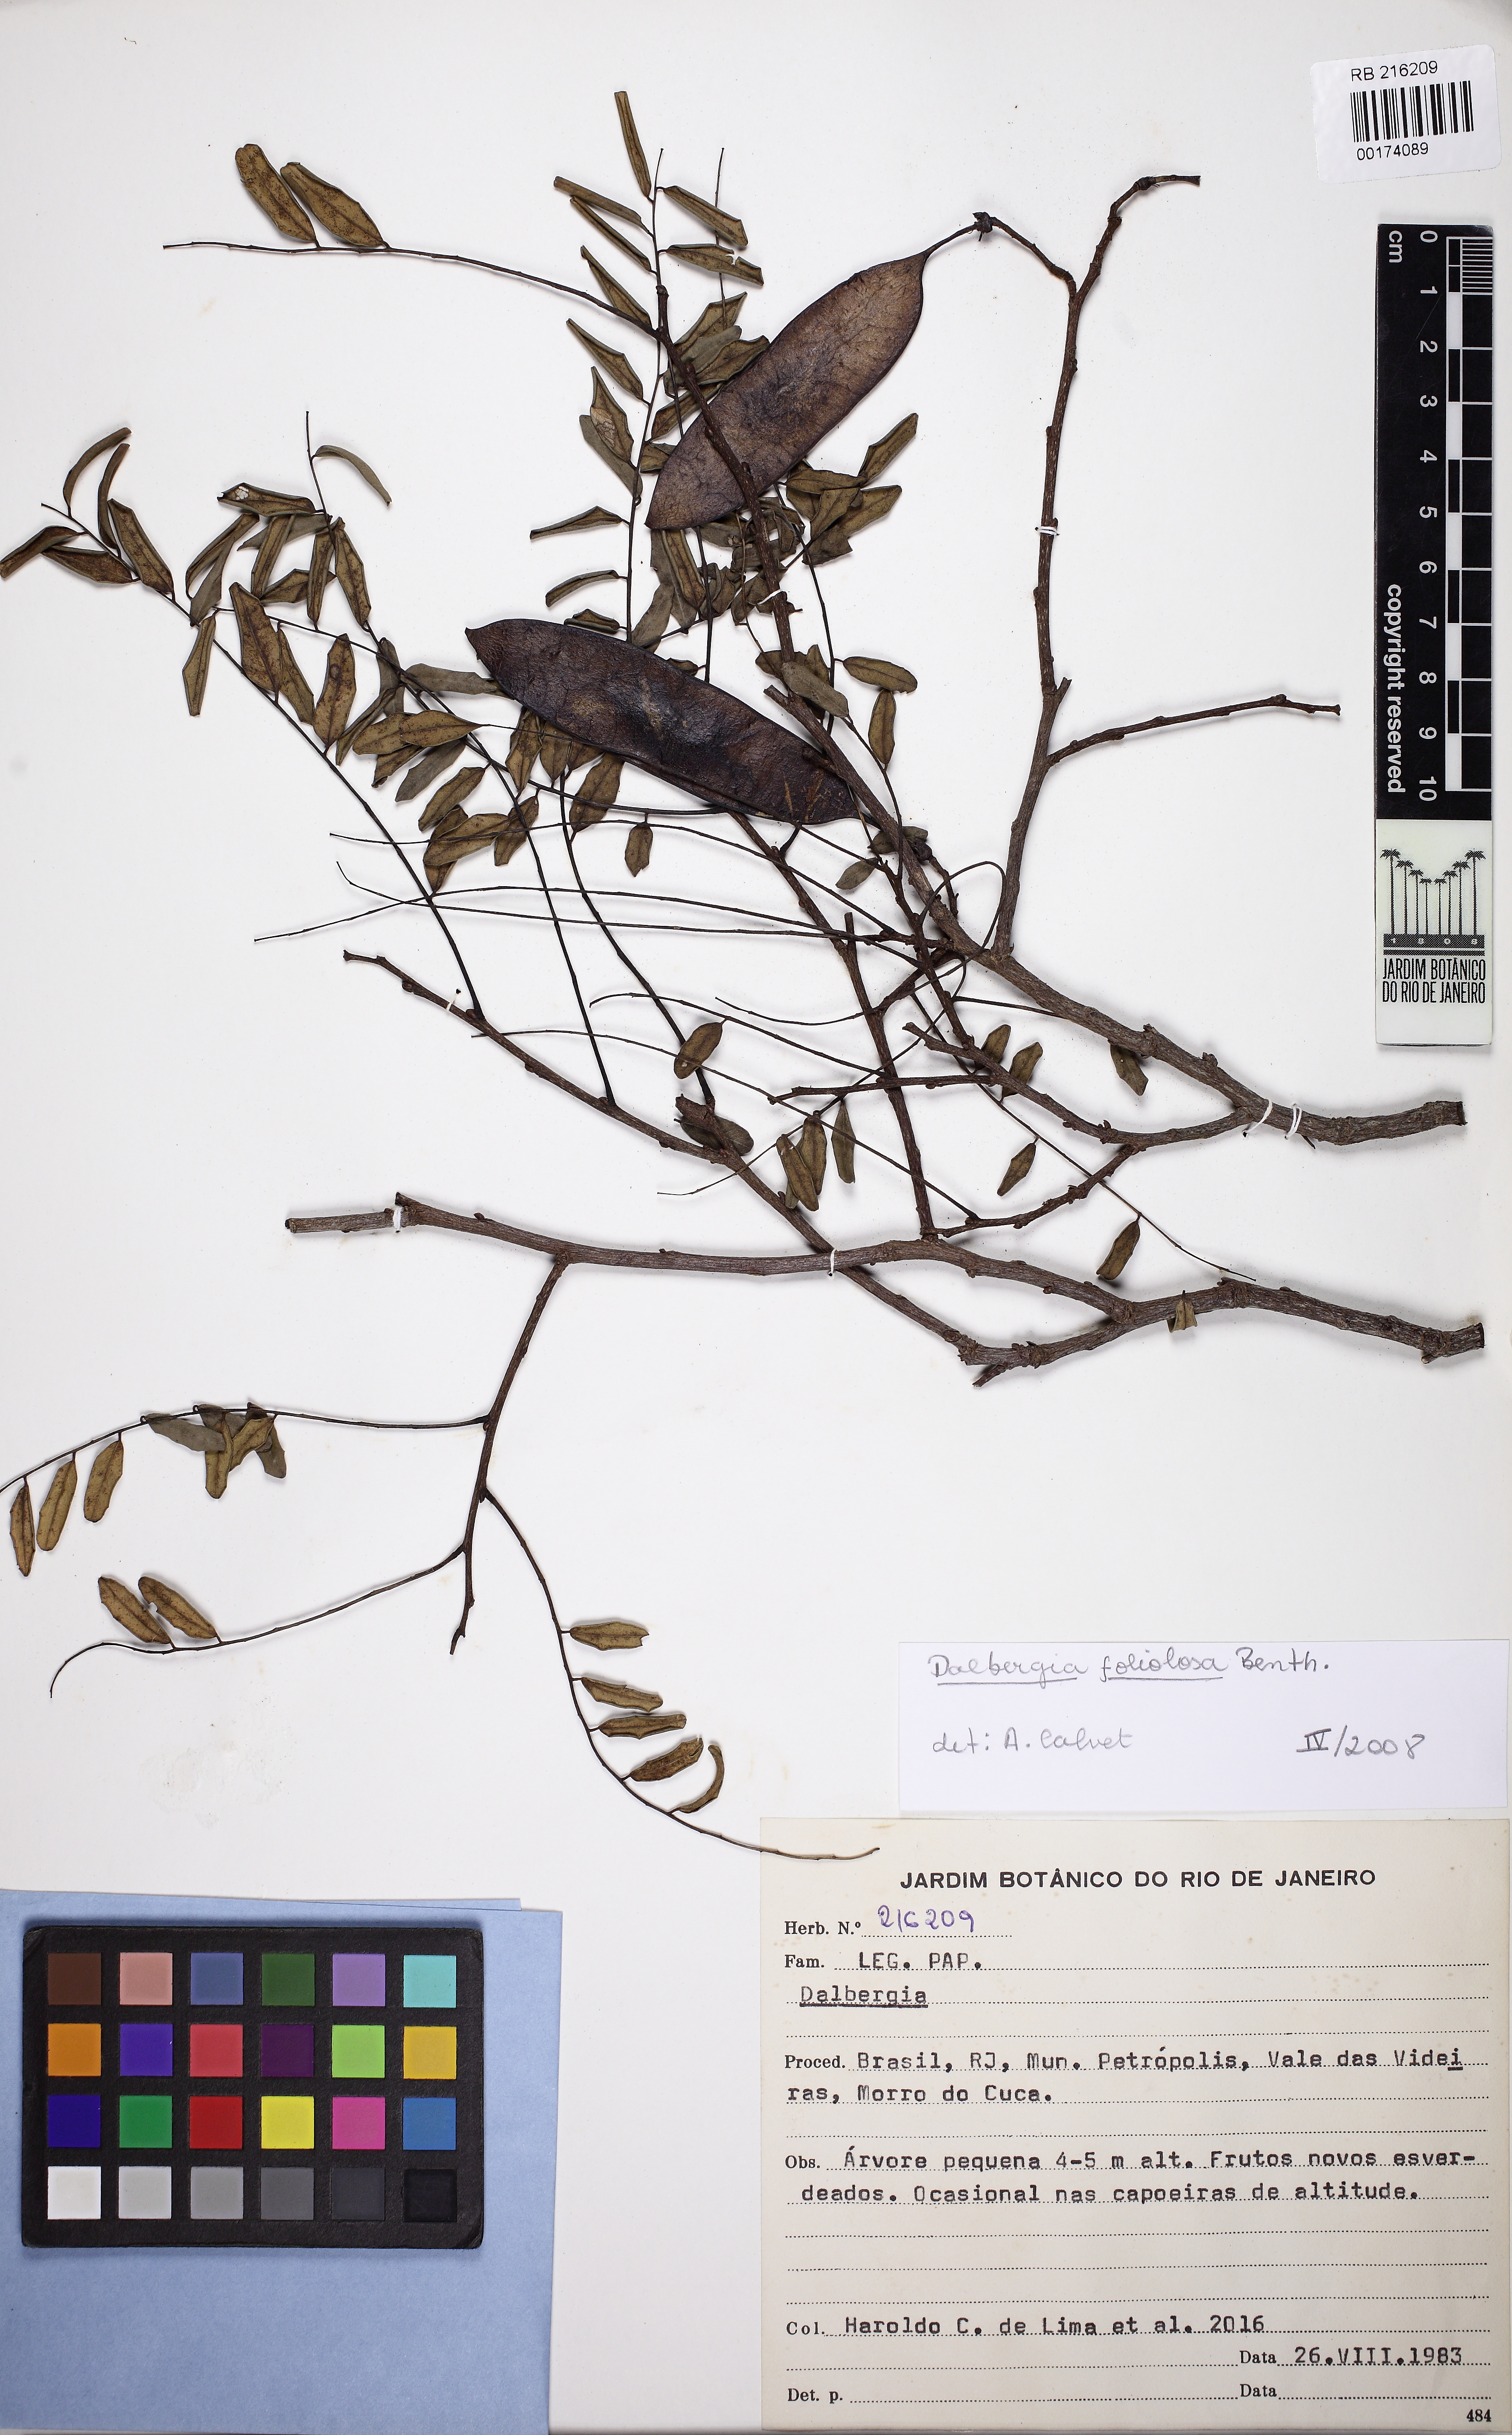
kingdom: Plantae
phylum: Tracheophyta
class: Magnoliopsida
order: Fabales
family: Fabaceae
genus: Dalbergia
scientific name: Dalbergia foliolosa
